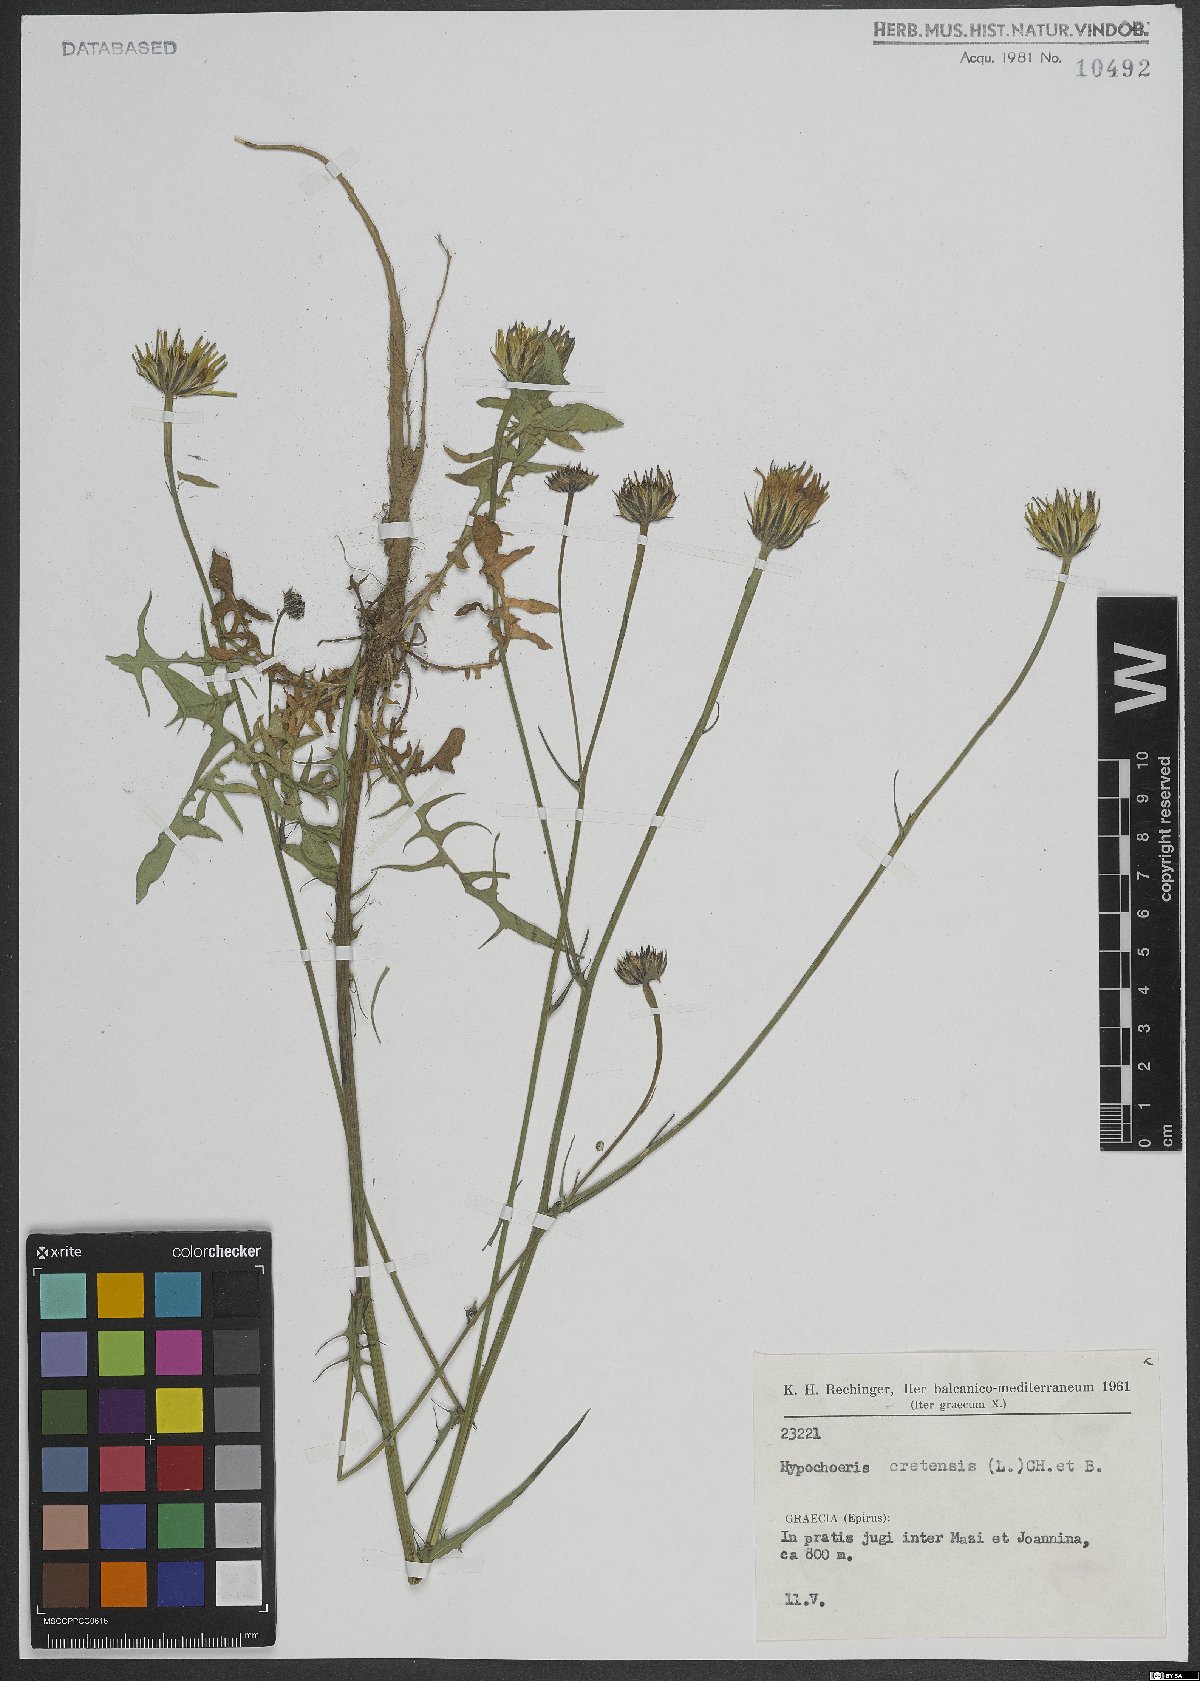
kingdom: Plantae
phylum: Tracheophyta
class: Magnoliopsida
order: Asterales
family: Asteraceae
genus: Hypochaeris
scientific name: Hypochaeris cretensis
